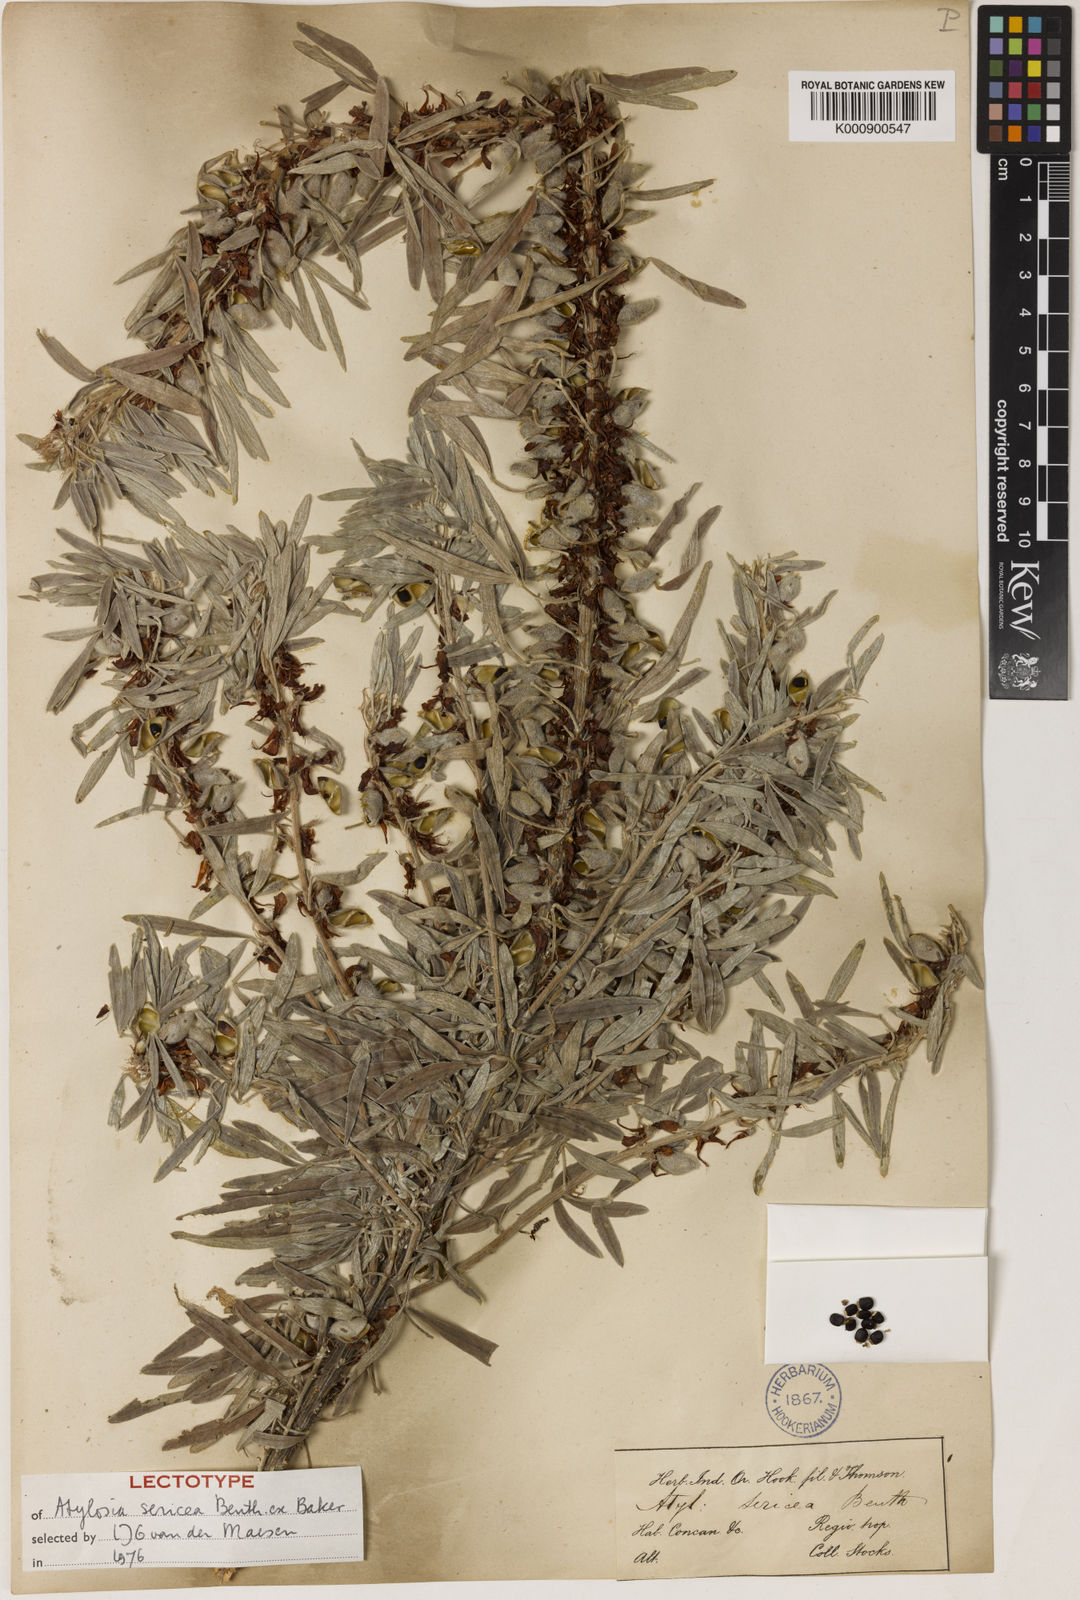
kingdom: Plantae
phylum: Tracheophyta
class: Magnoliopsida
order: Fabales
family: Fabaceae
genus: Cajanus
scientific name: Cajanus sericeus
